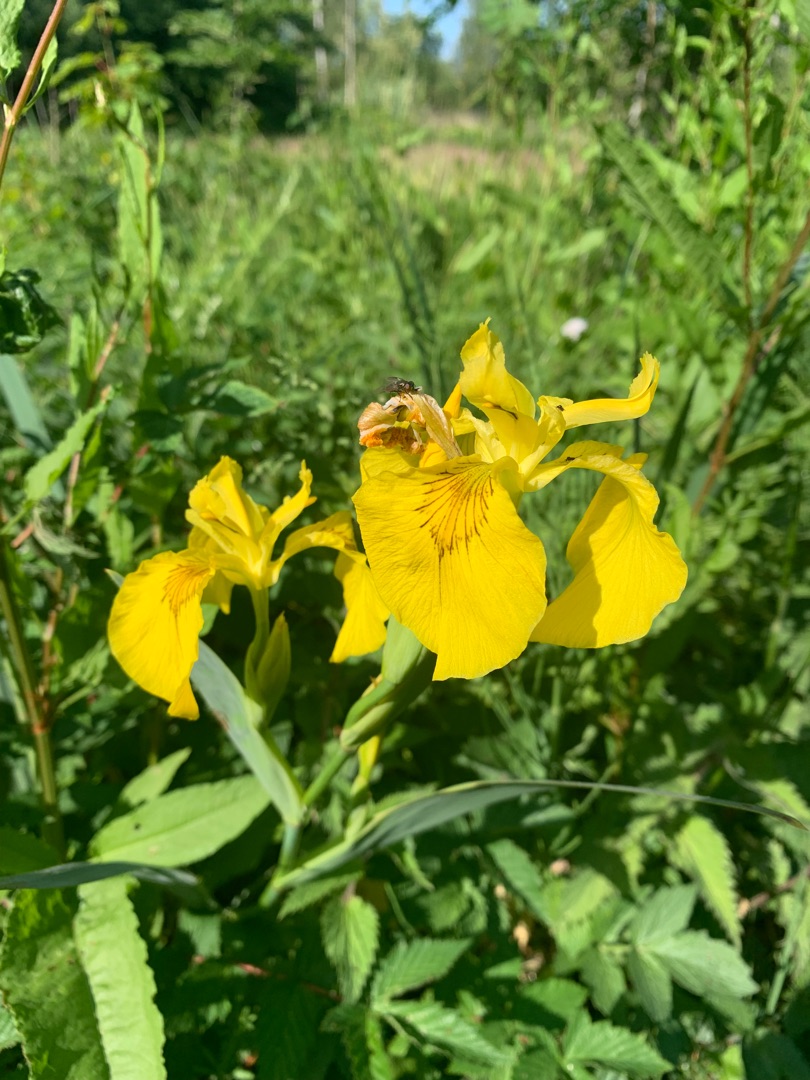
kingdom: Plantae
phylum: Tracheophyta
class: Liliopsida
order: Asparagales
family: Iridaceae
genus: Iris
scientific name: Iris pseudacorus
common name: Gul iris
